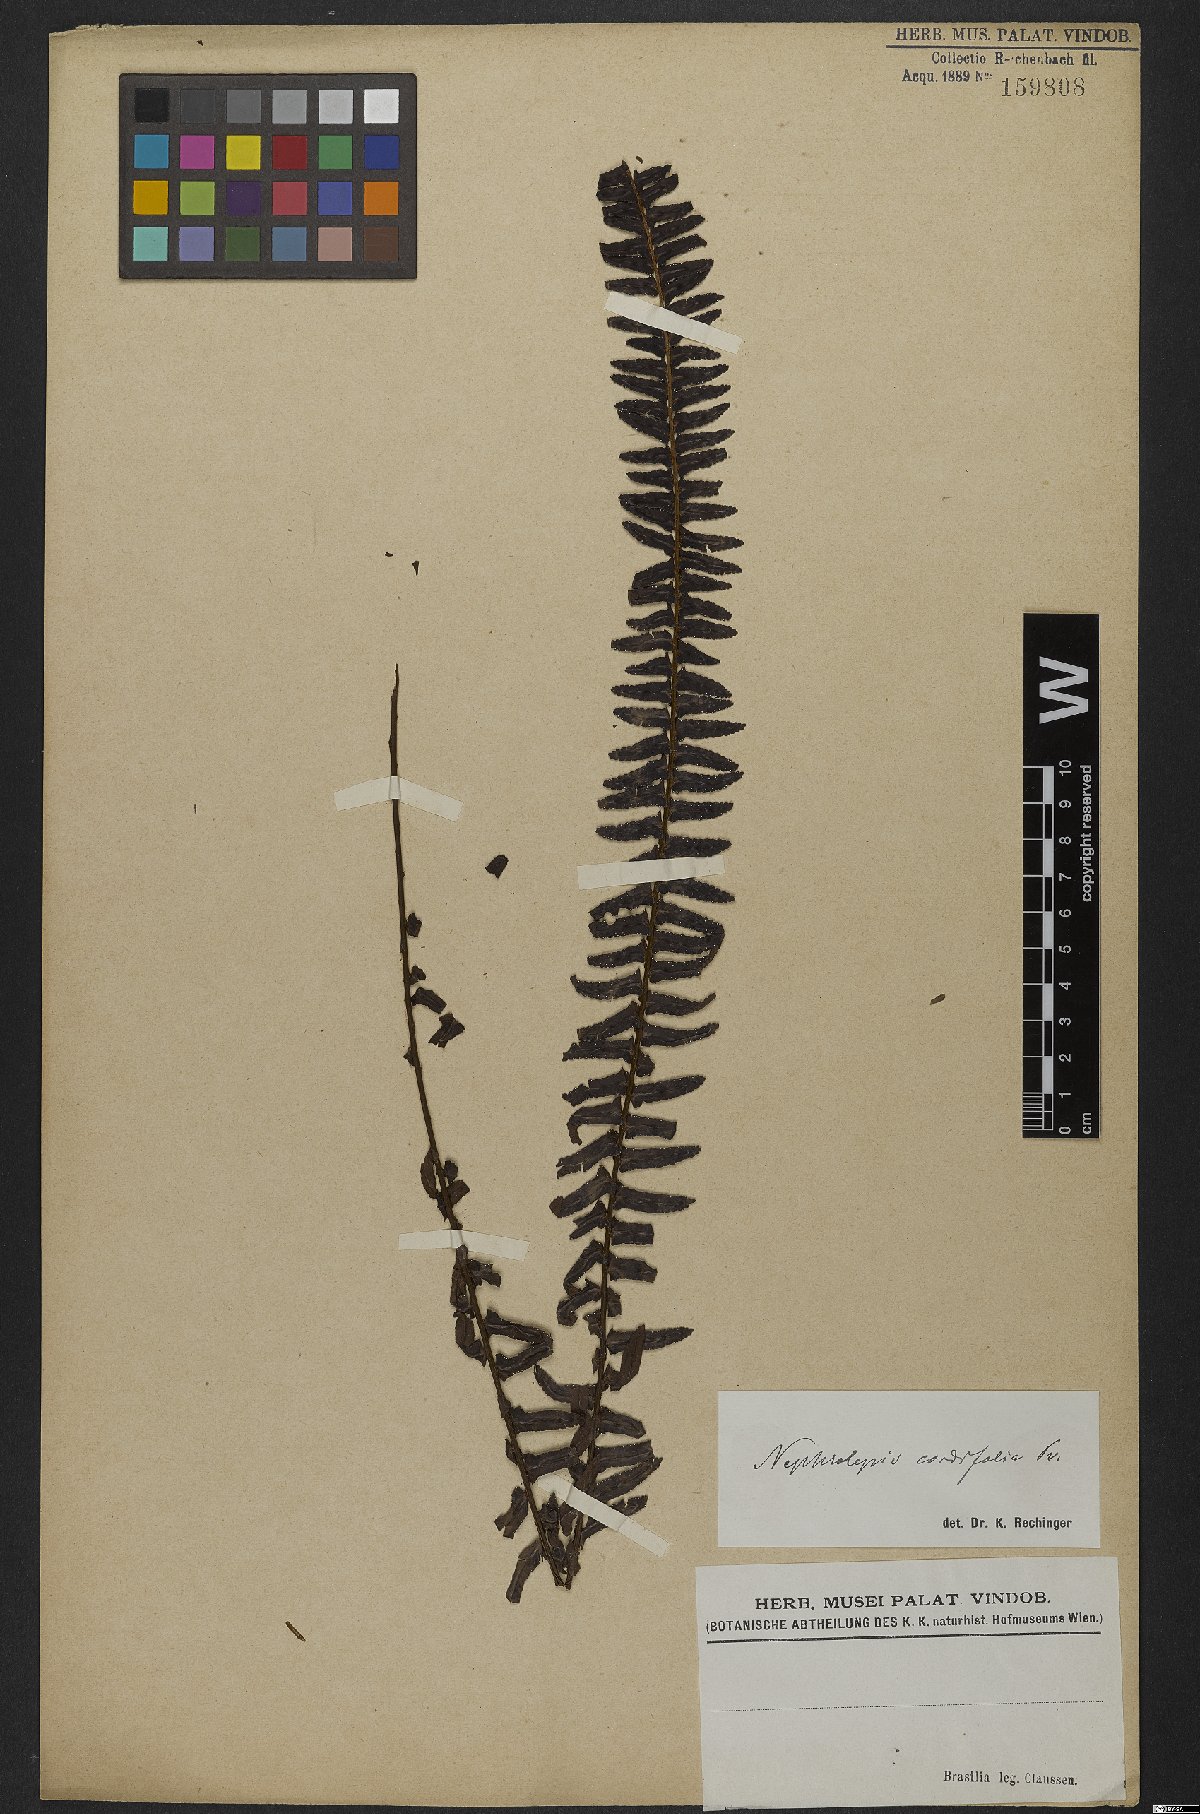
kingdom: Plantae
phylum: Tracheophyta
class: Polypodiopsida
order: Polypodiales
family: Nephrolepidaceae
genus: Nephrolepis
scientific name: Nephrolepis cordifolia
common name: Narrow swordfern
